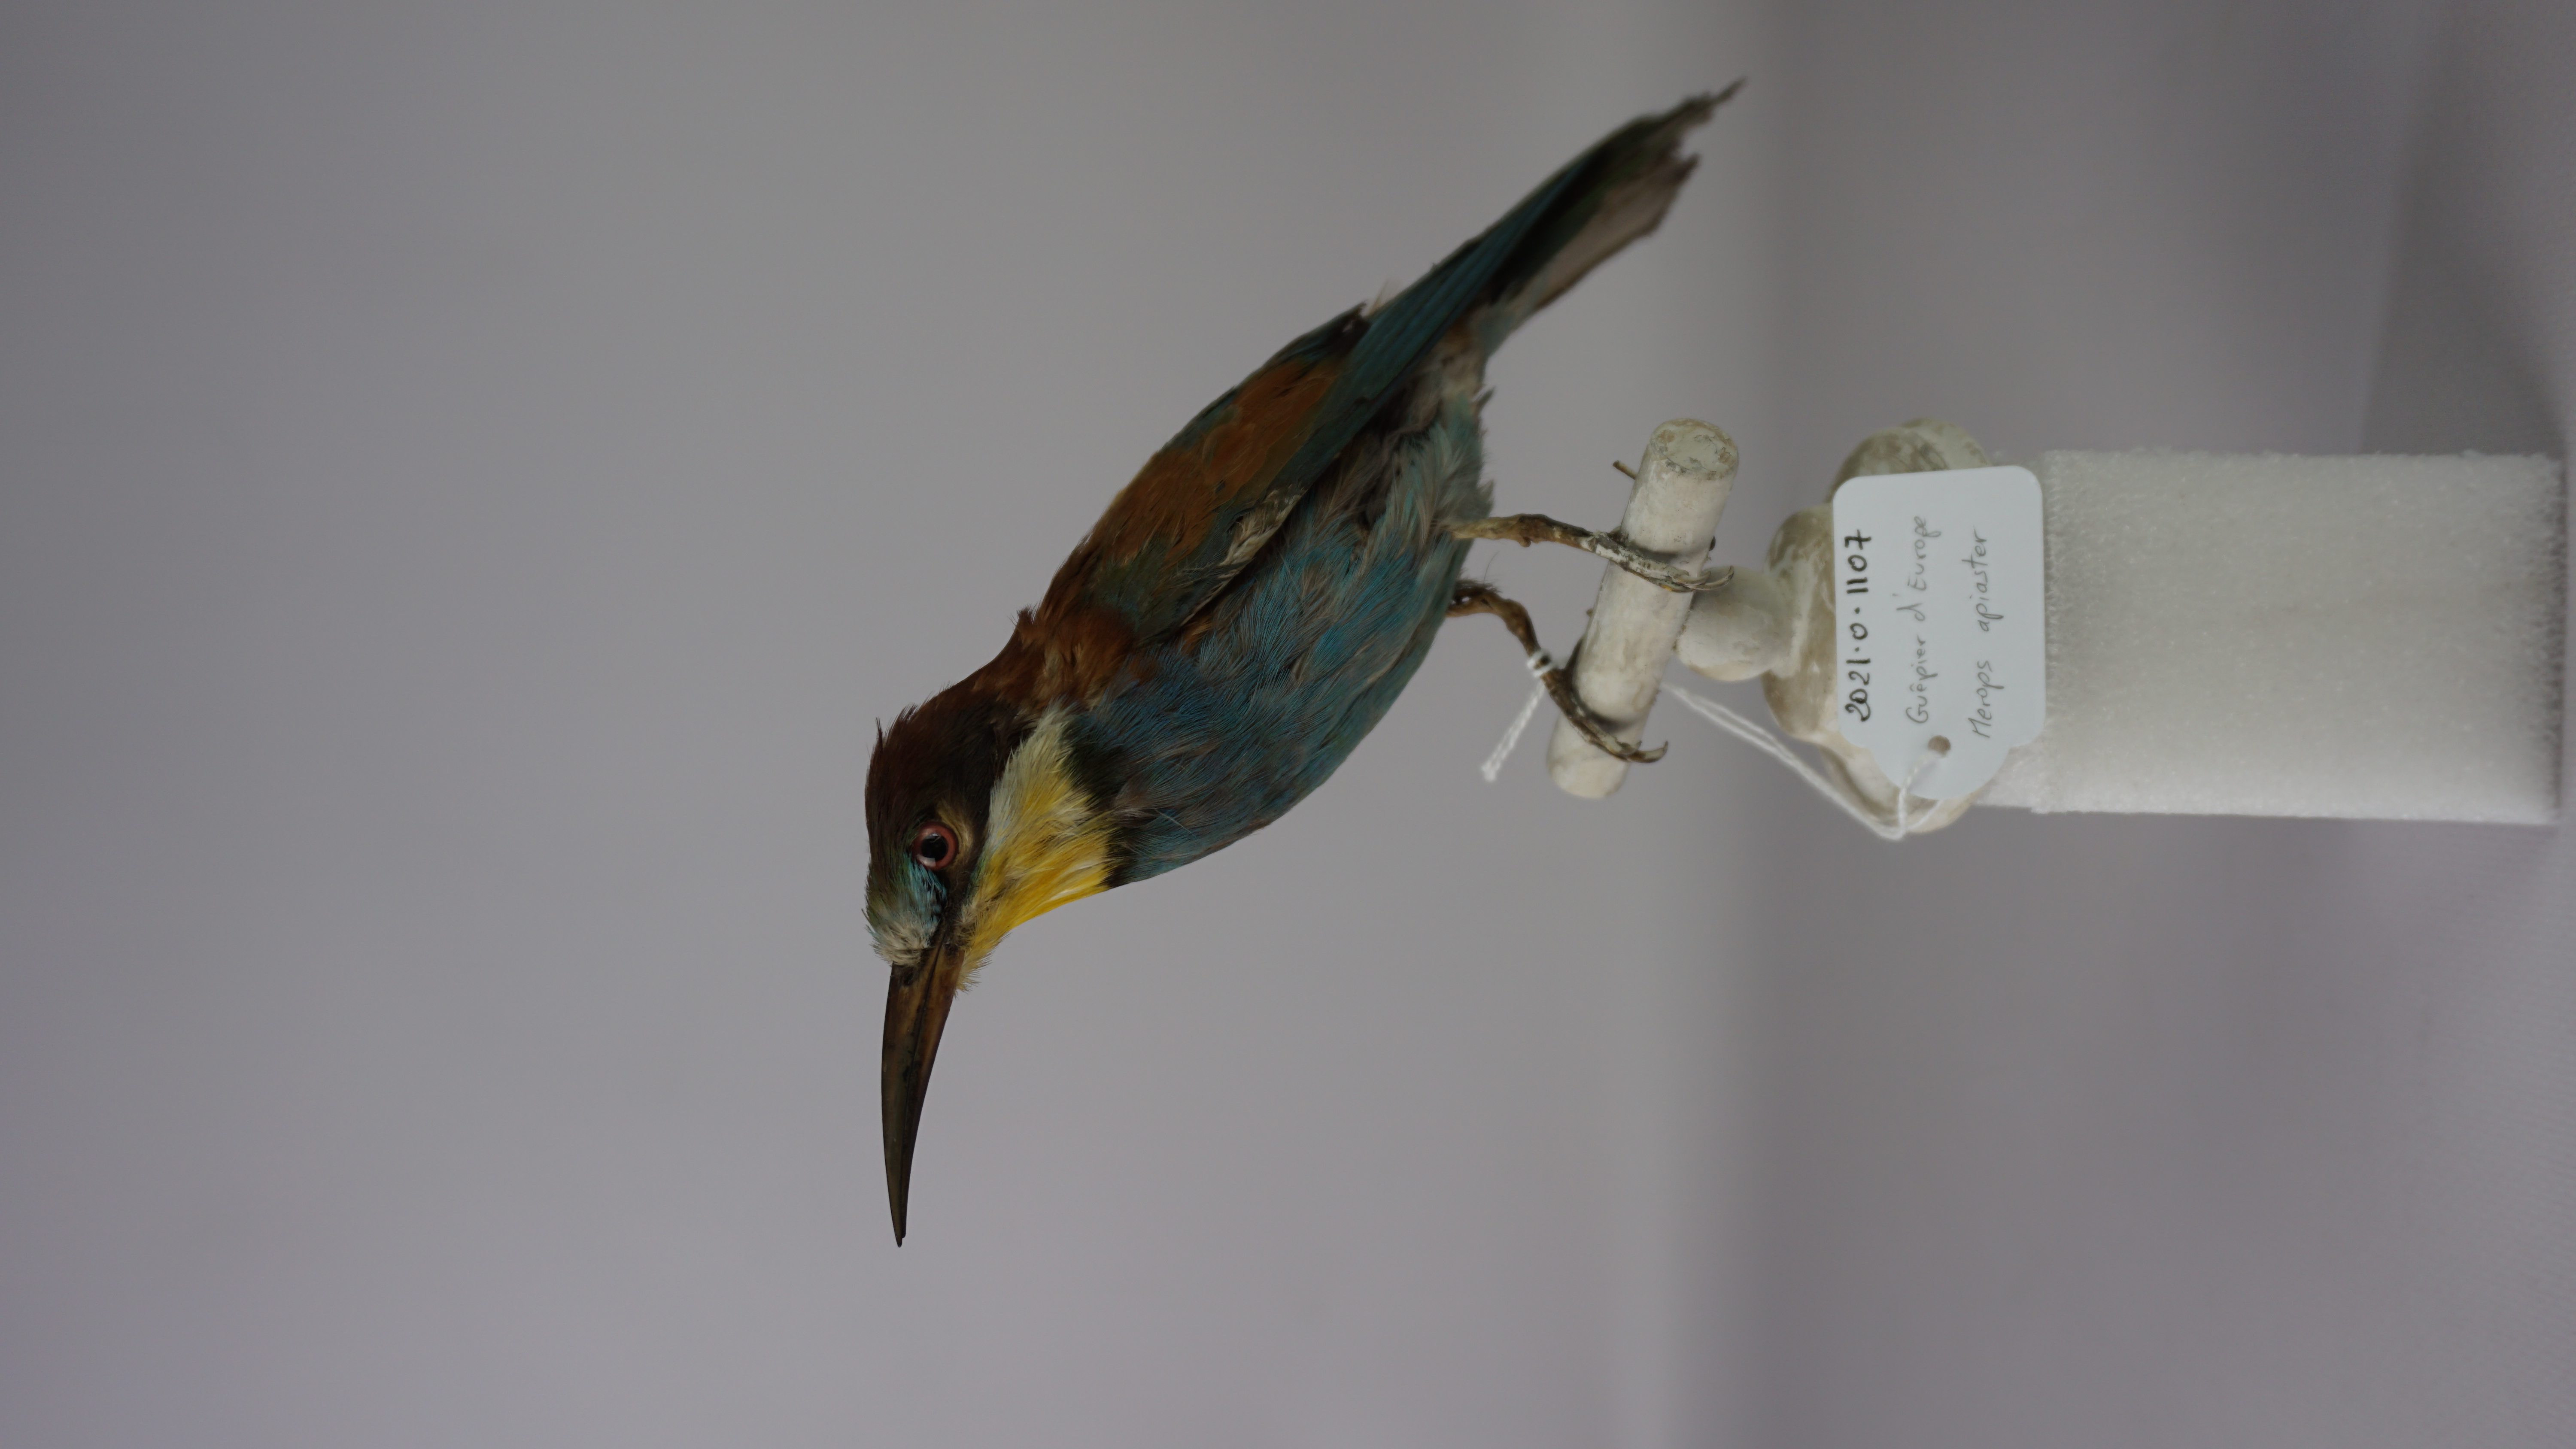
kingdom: Animalia
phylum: Chordata
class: Aves
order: Coraciiformes
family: Meropidae
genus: Merops
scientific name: Merops apiaster
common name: European bee-eater
